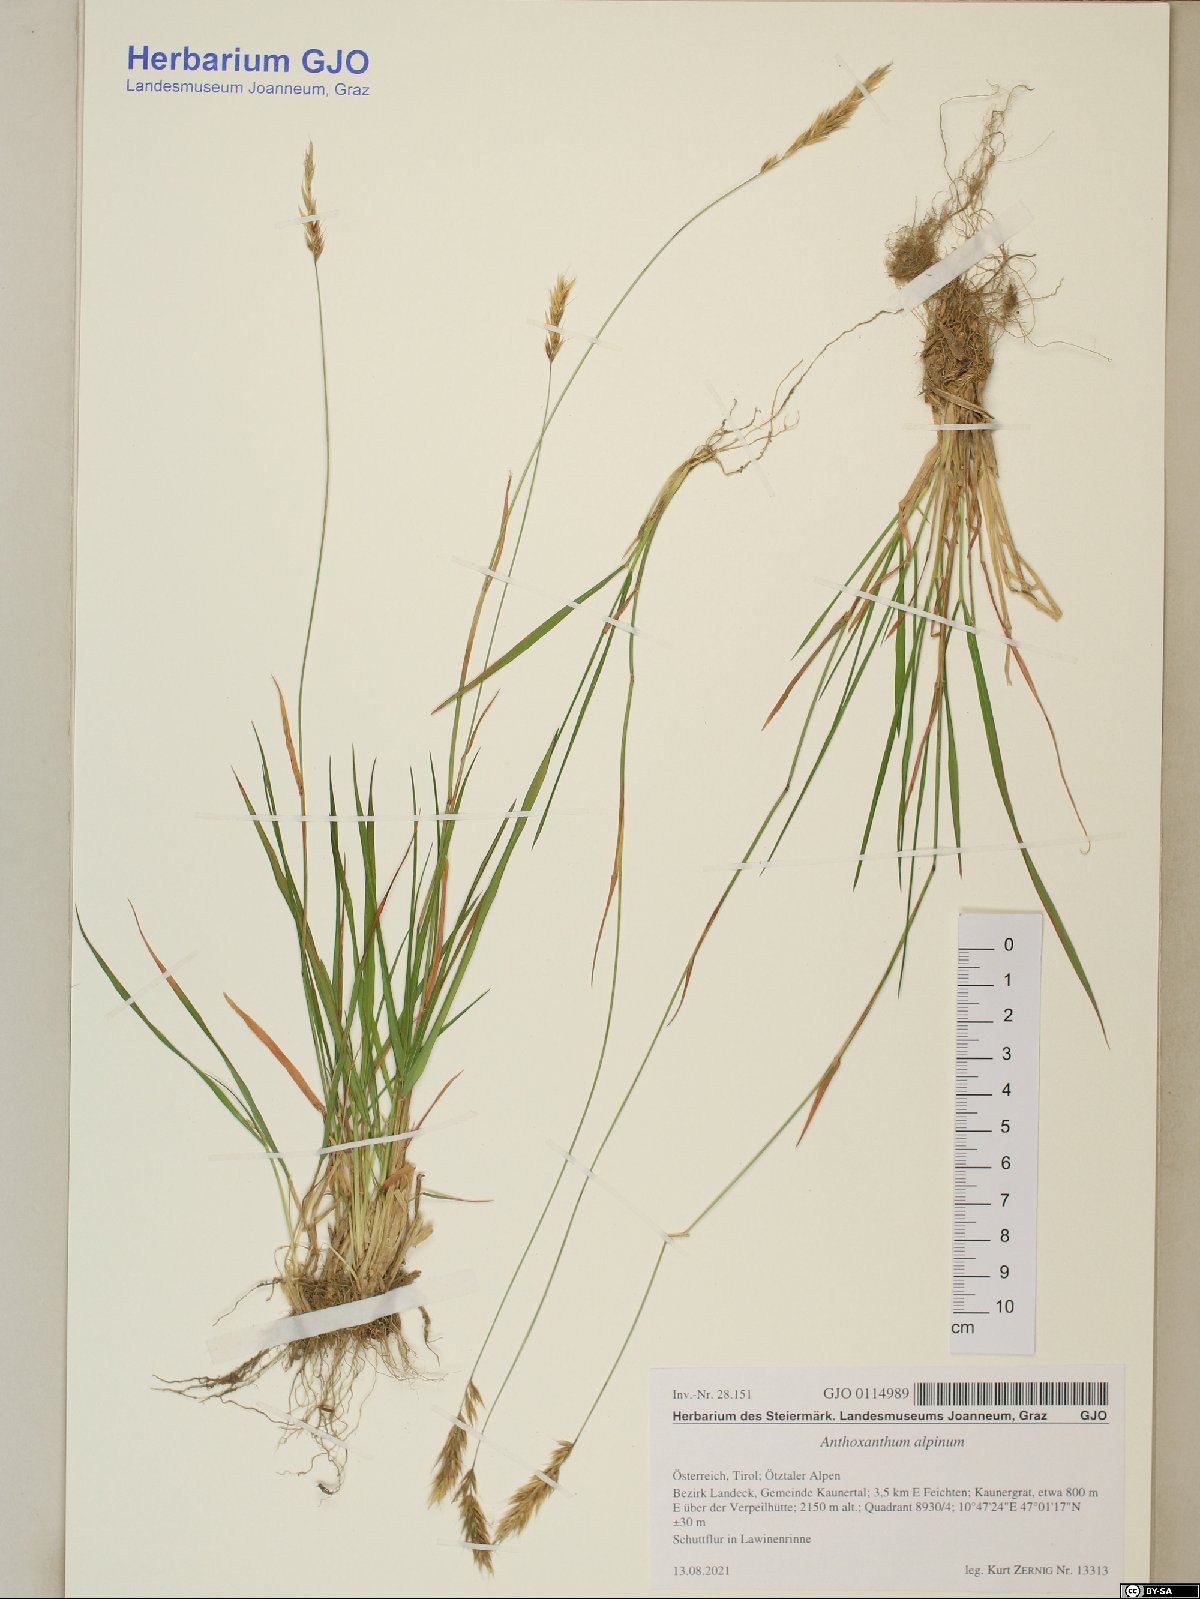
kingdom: Plantae
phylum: Tracheophyta
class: Liliopsida
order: Poales
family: Poaceae
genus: Anthoxanthum
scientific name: Anthoxanthum nipponicum
